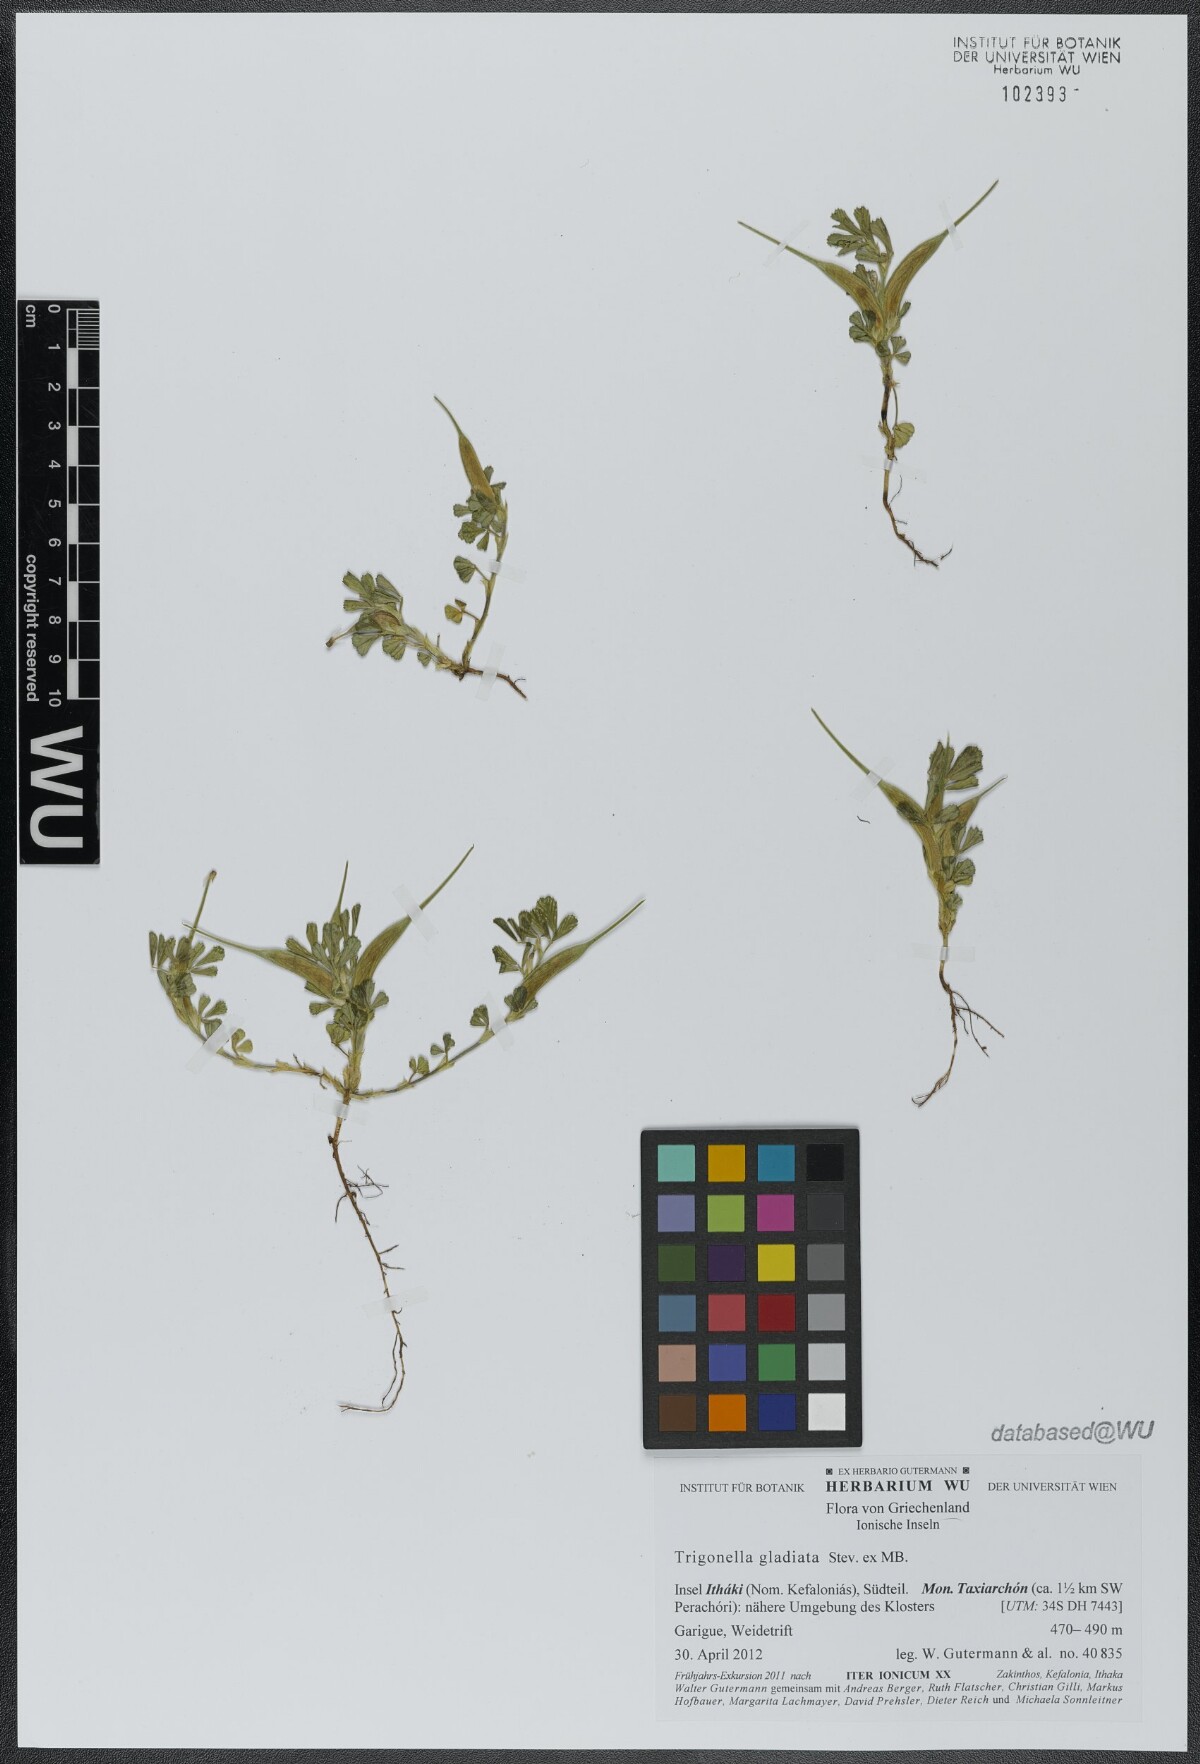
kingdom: Plantae
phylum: Tracheophyta
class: Magnoliopsida
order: Fabales
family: Fabaceae
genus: Trigonella
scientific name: Trigonella gladiata
